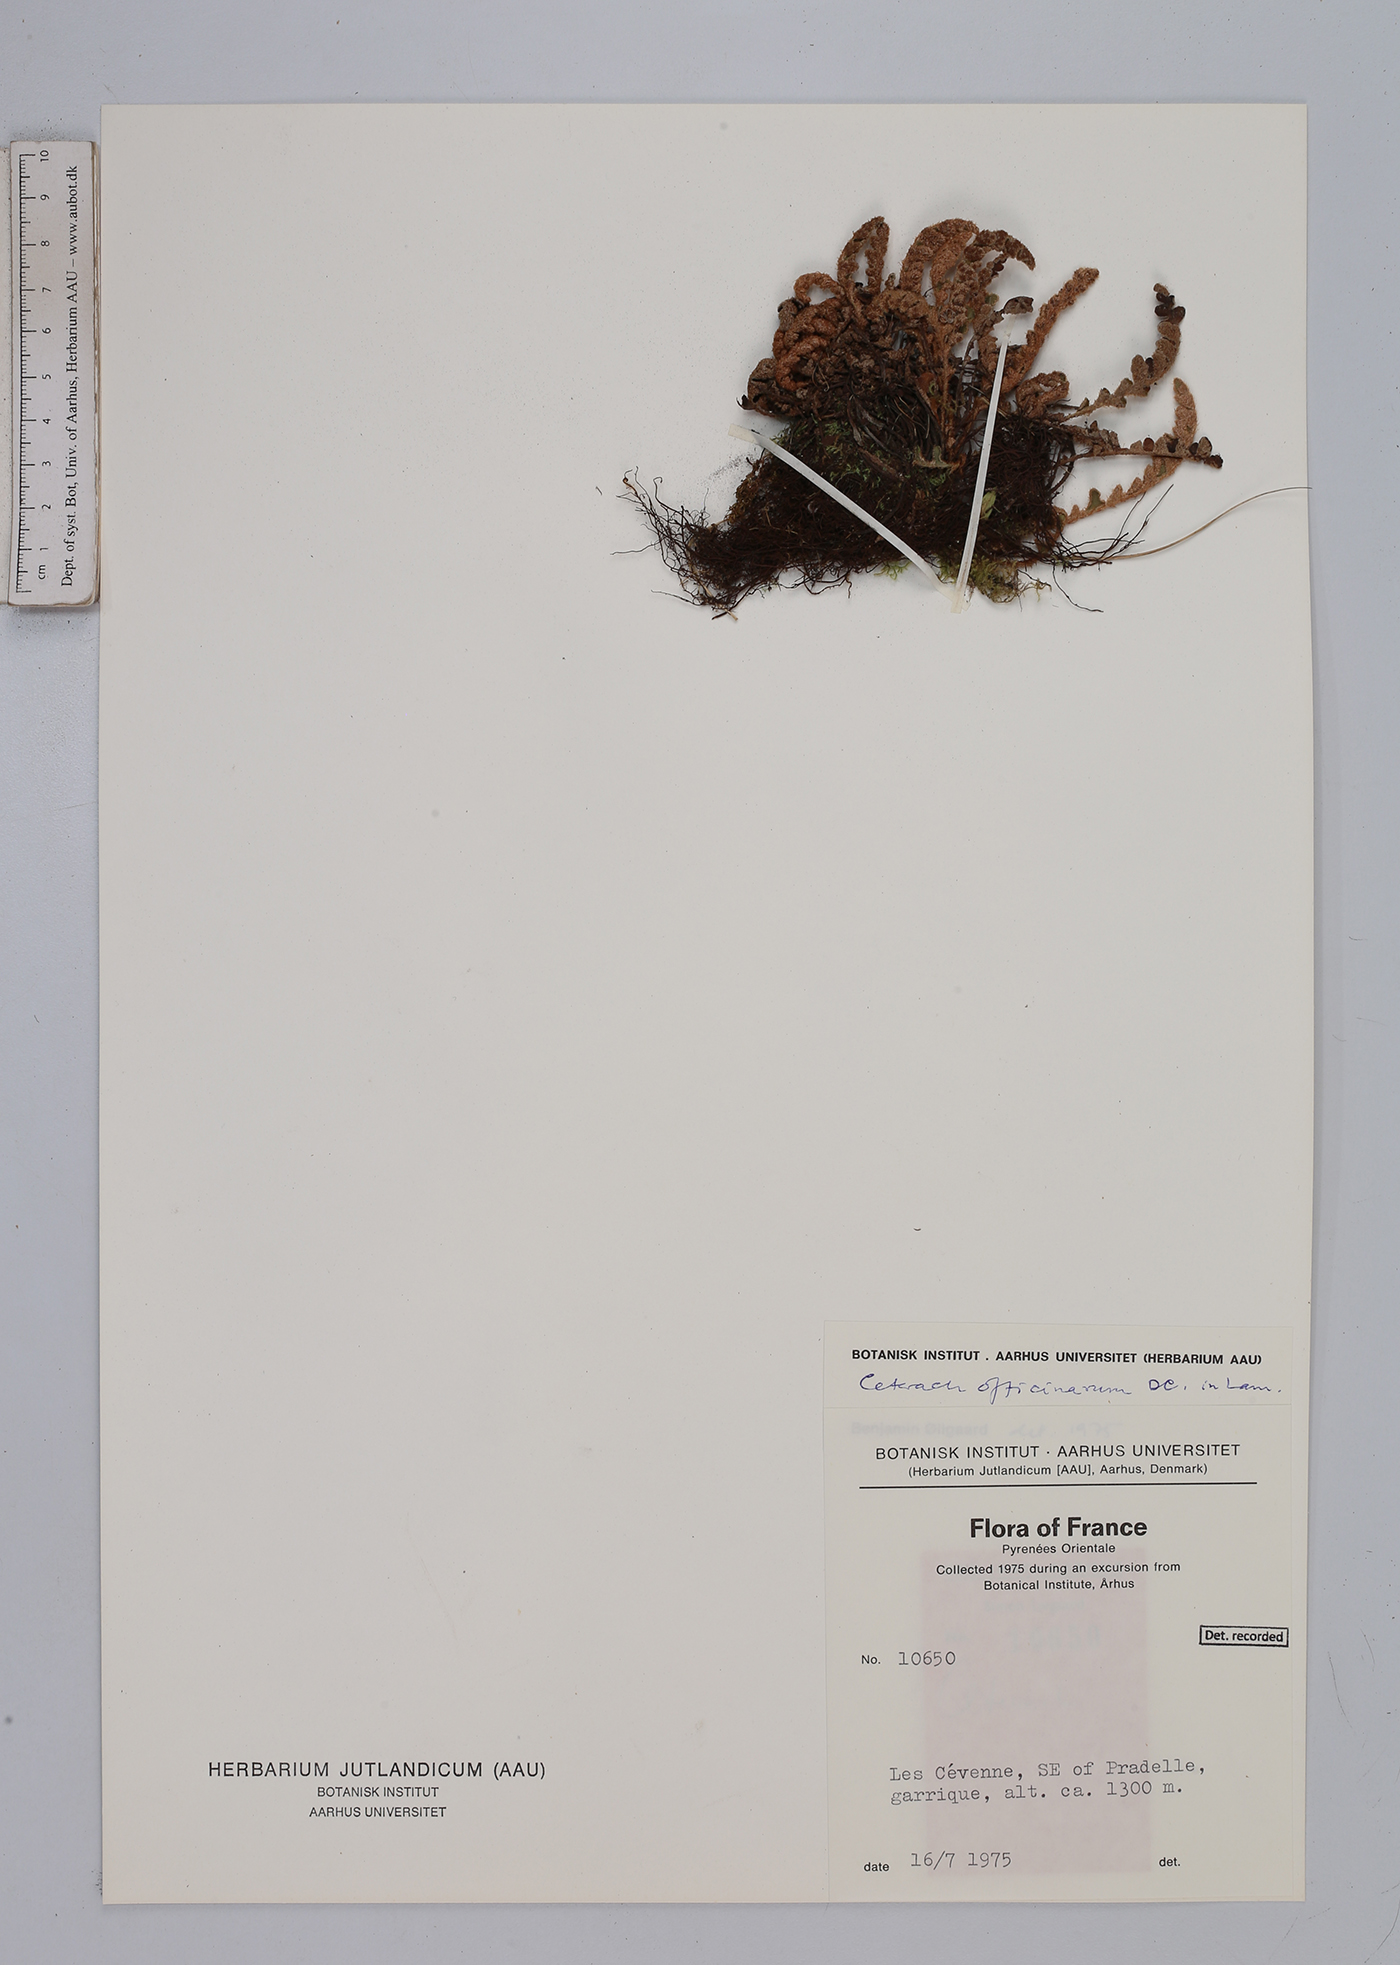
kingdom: Plantae
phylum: Tracheophyta
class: Polypodiopsida
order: Polypodiales
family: Aspleniaceae
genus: Asplenium
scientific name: Asplenium ceterach
